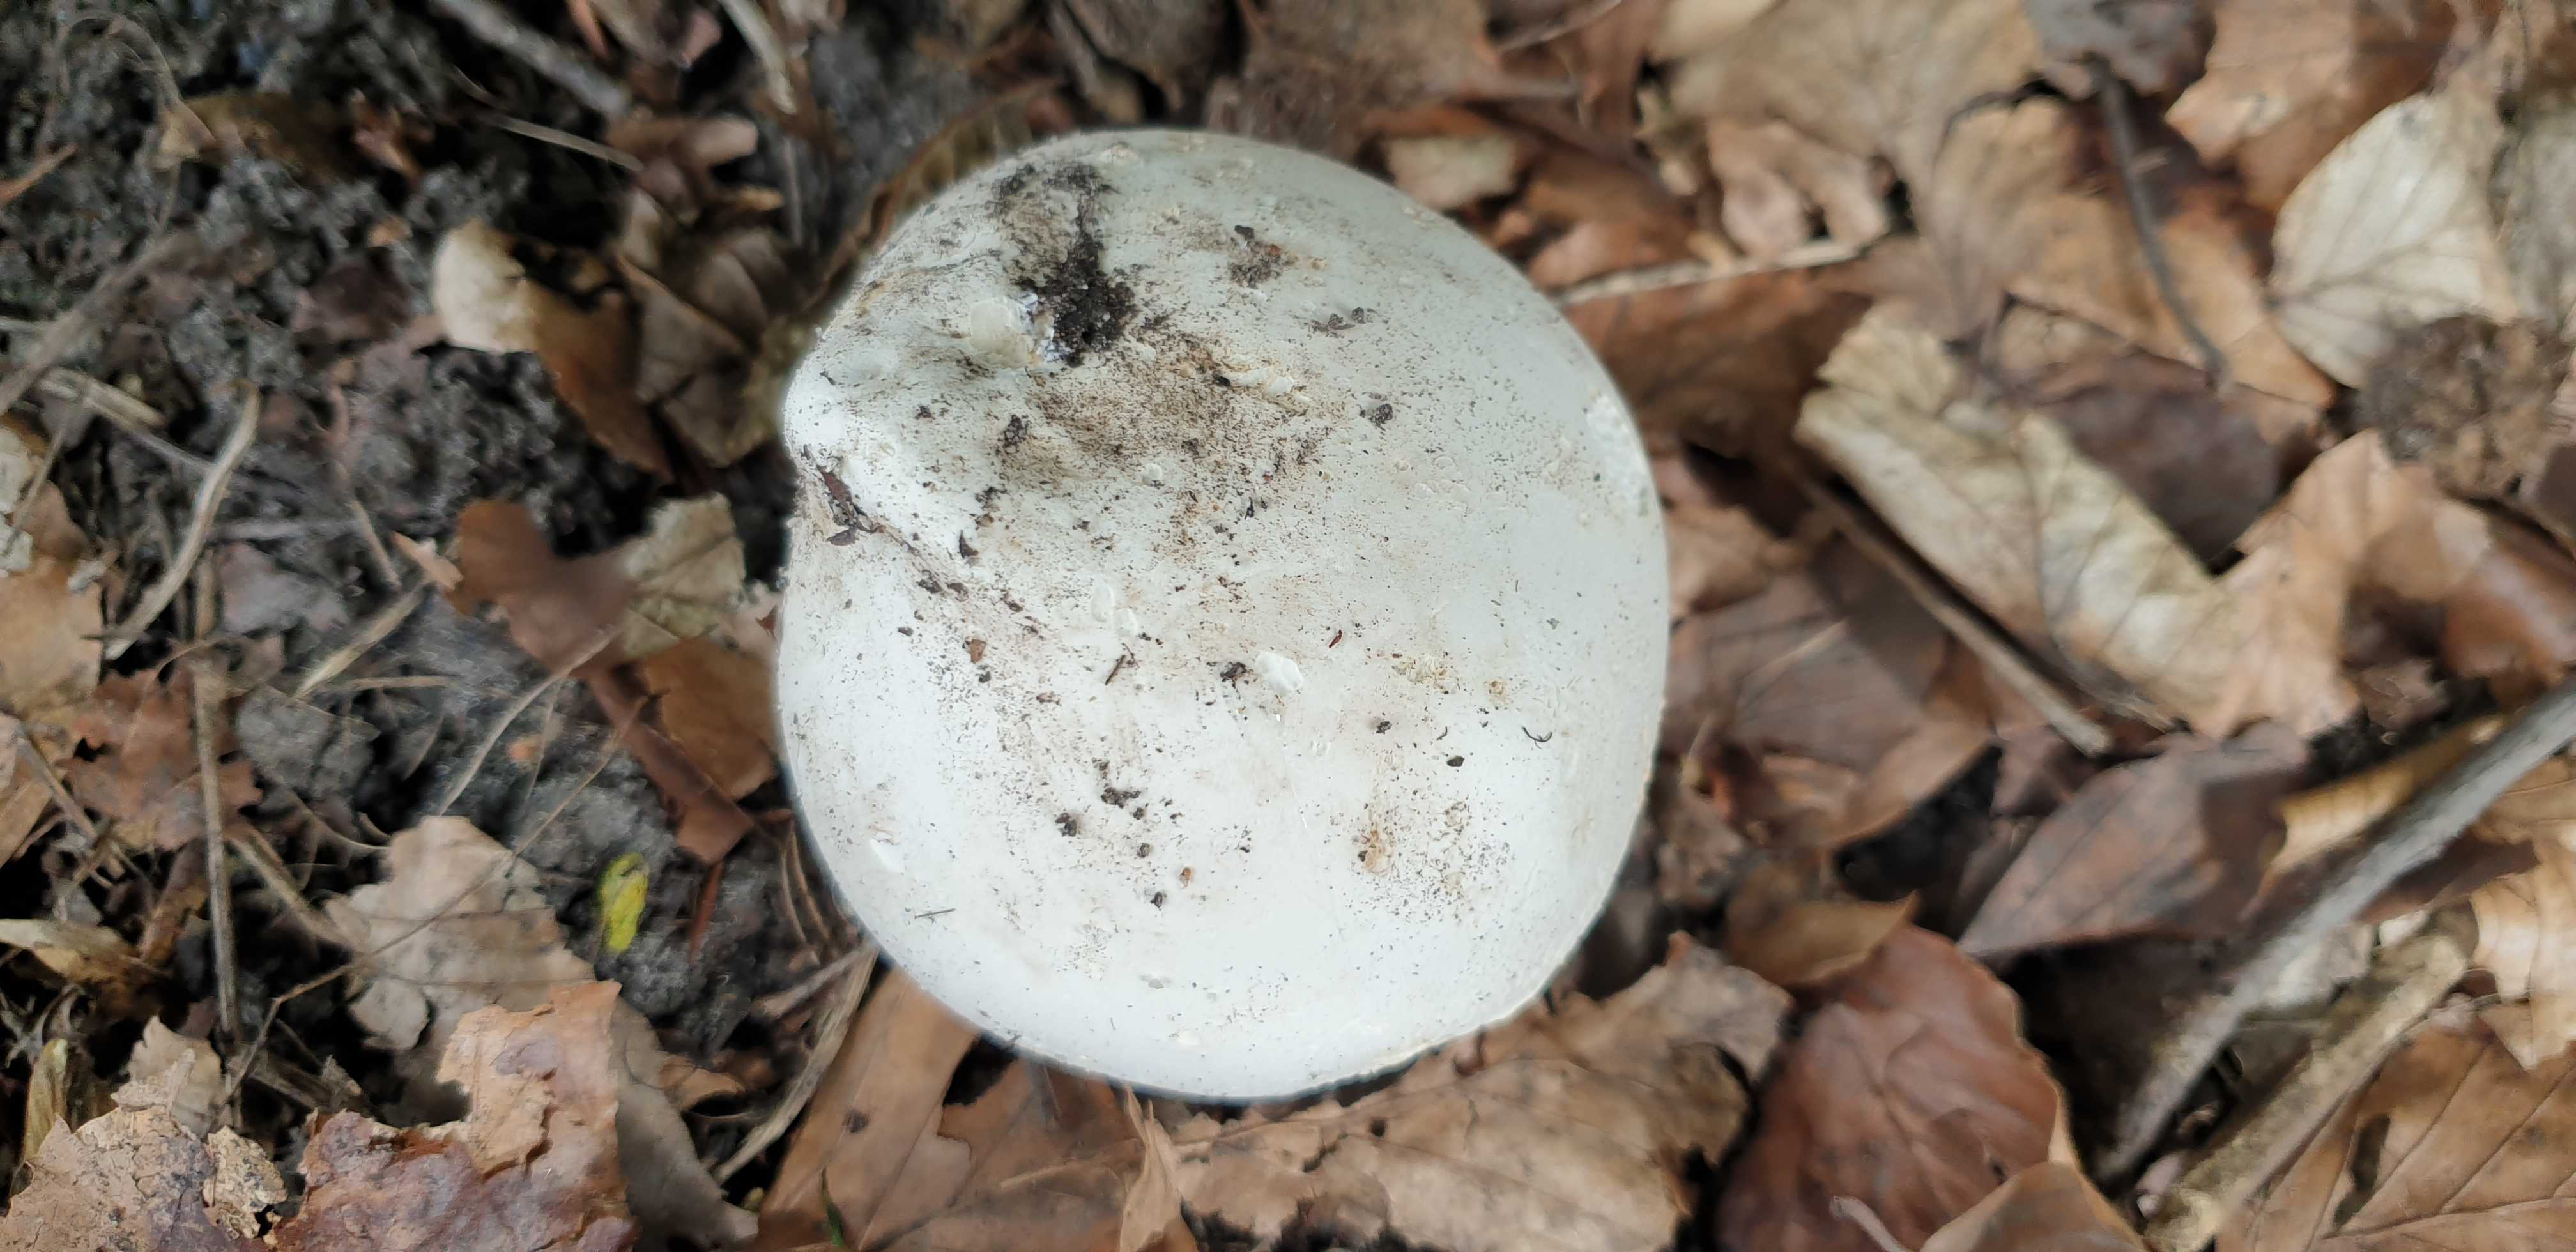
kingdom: Fungi
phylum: Basidiomycota
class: Agaricomycetes
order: Agaricales
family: Lycoperdaceae
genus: Calvatia
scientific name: Calvatia gigantea
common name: kæmpestøvbold
